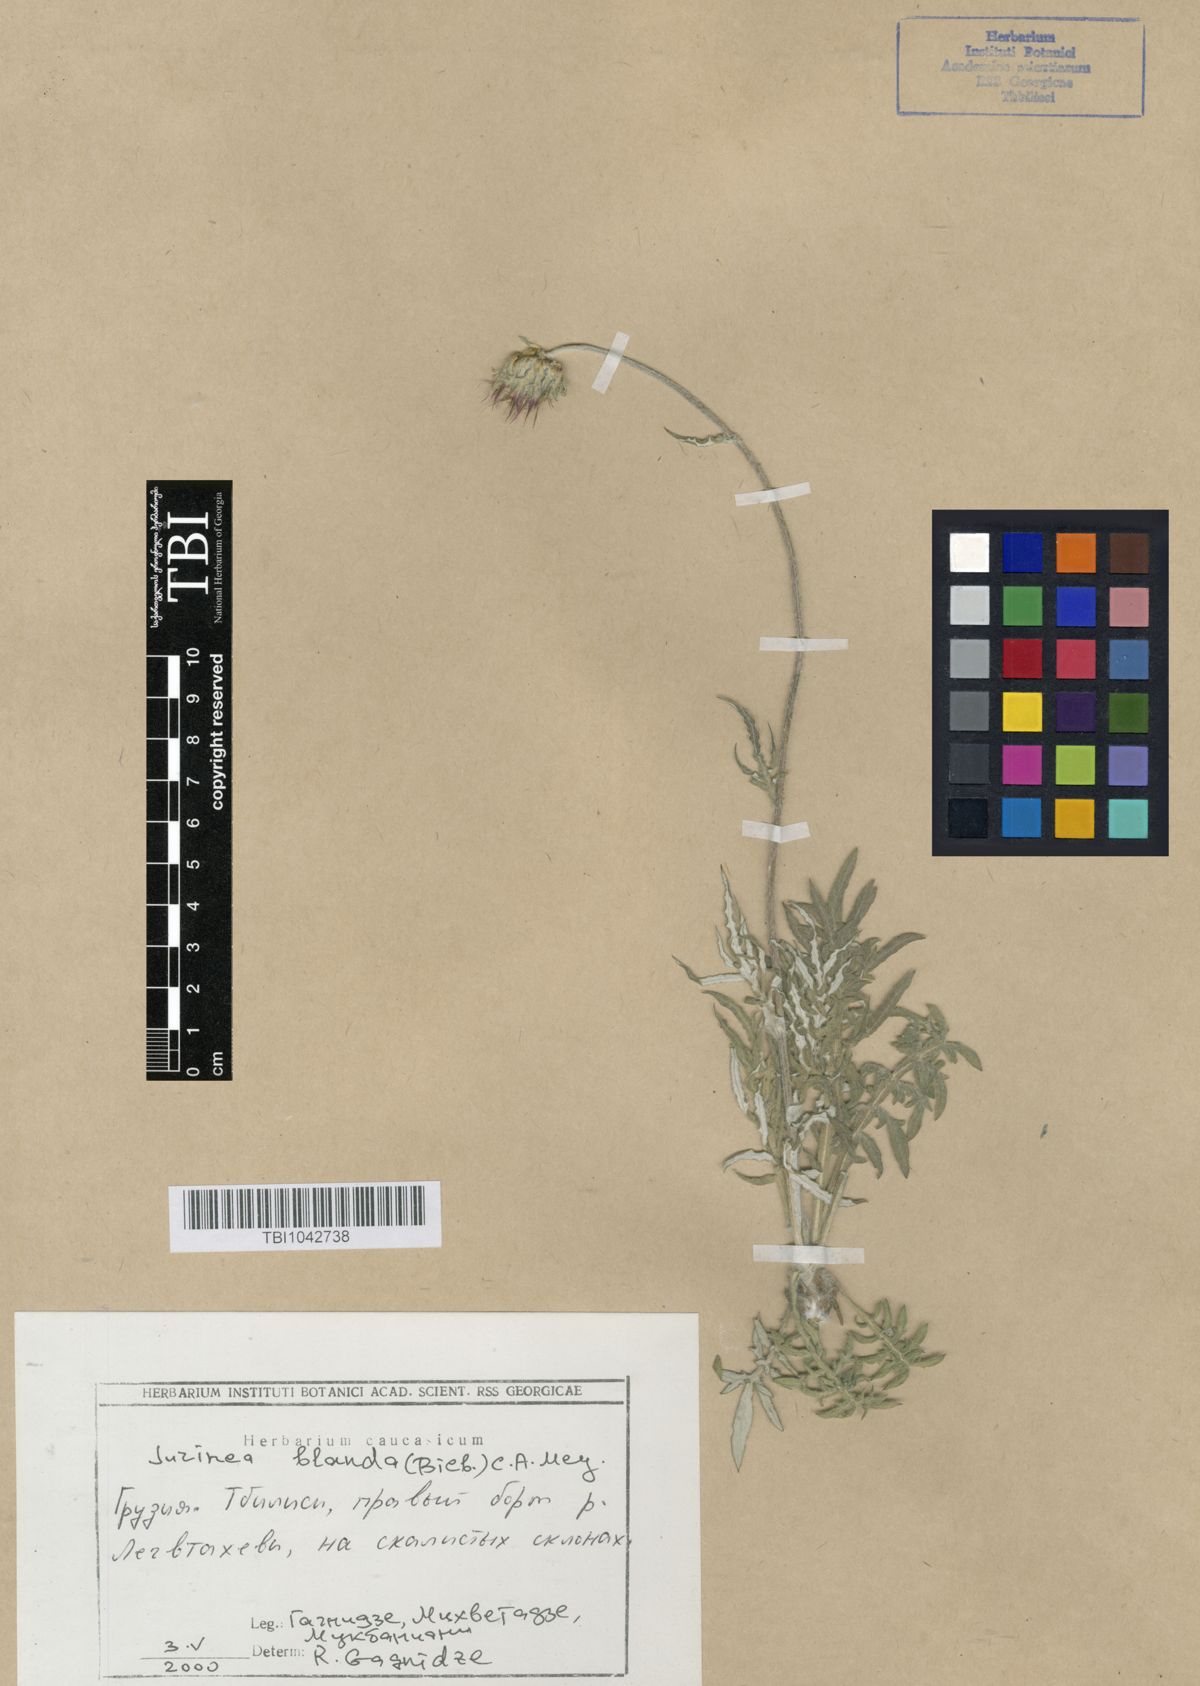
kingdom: Plantae
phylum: Tracheophyta
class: Magnoliopsida
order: Asterales
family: Asteraceae
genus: Jurinea
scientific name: Jurinea blanda
